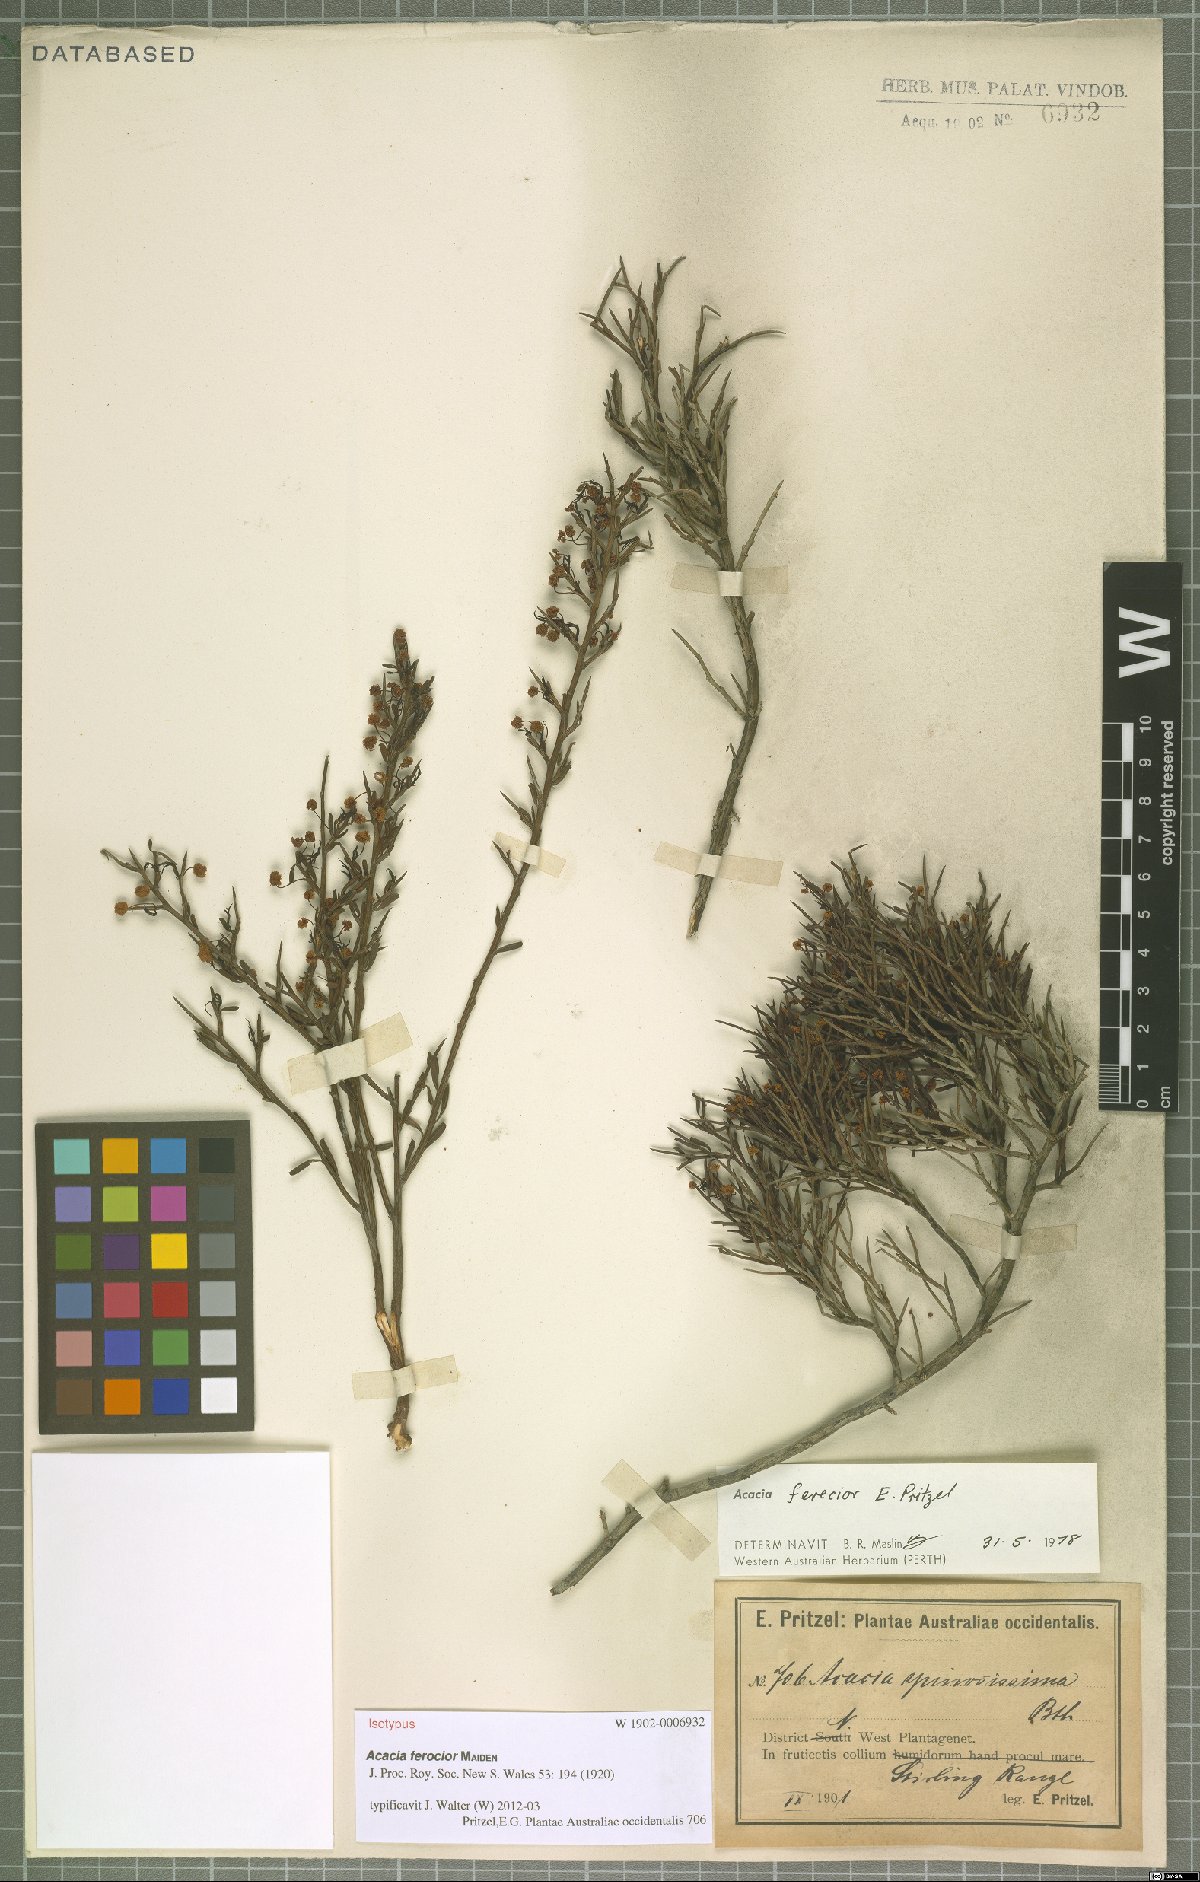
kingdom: Plantae
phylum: Tracheophyta
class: Magnoliopsida
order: Fabales
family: Fabaceae
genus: Acacia
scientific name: Acacia ferocior
